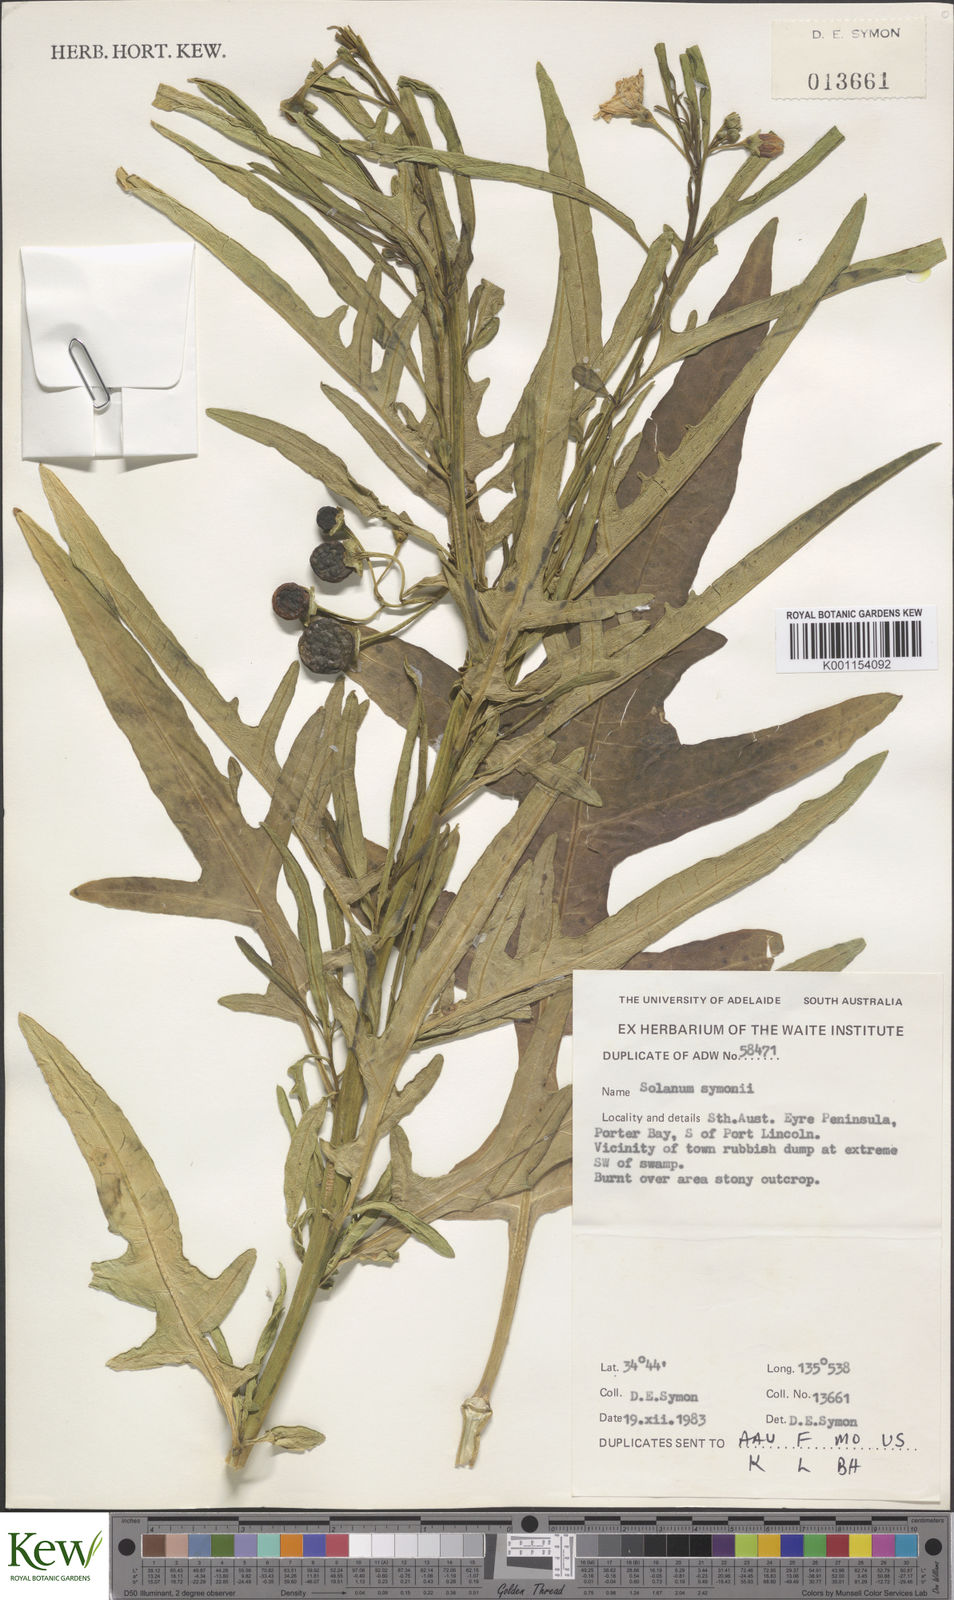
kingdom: Plantae
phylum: Tracheophyta
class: Magnoliopsida
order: Solanales
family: Solanaceae
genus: Solanum
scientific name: Solanum symonii
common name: South australian kangaroo-apple
